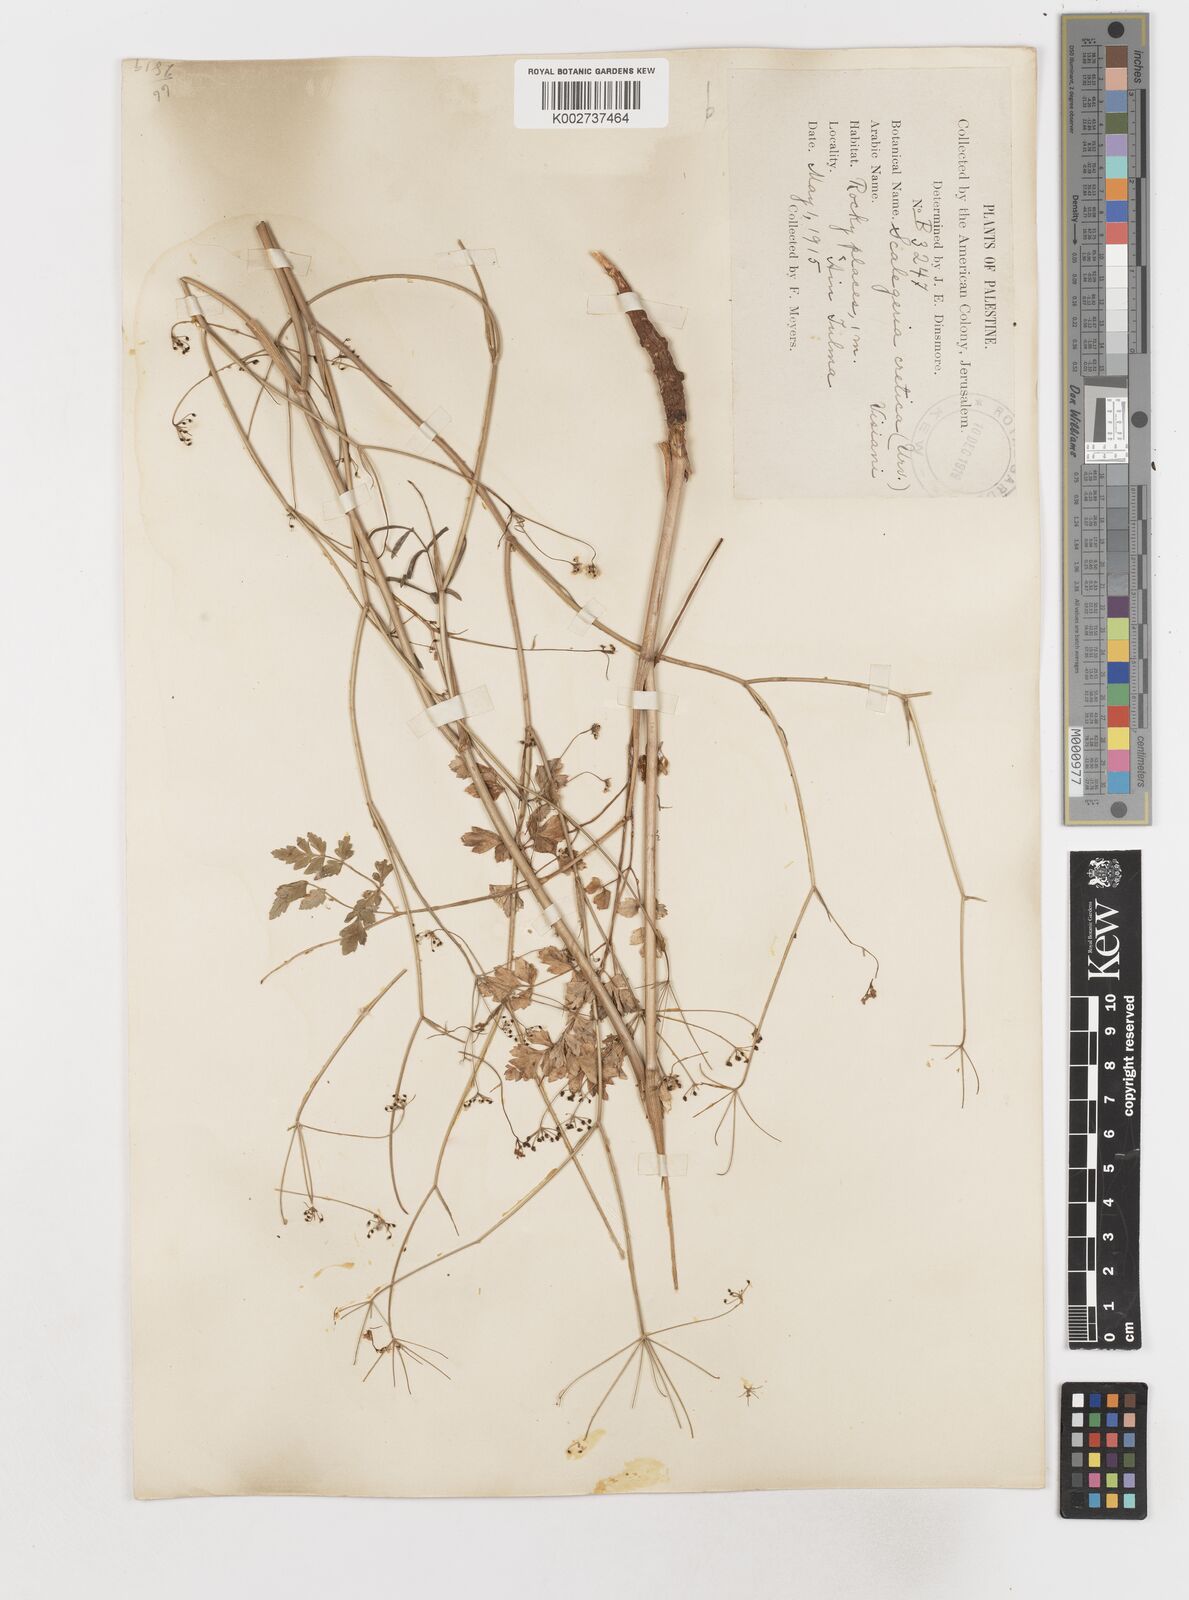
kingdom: Plantae
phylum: Tracheophyta
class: Magnoliopsida
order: Apiales
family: Apiaceae
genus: Scaligeria
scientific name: Scaligeria
